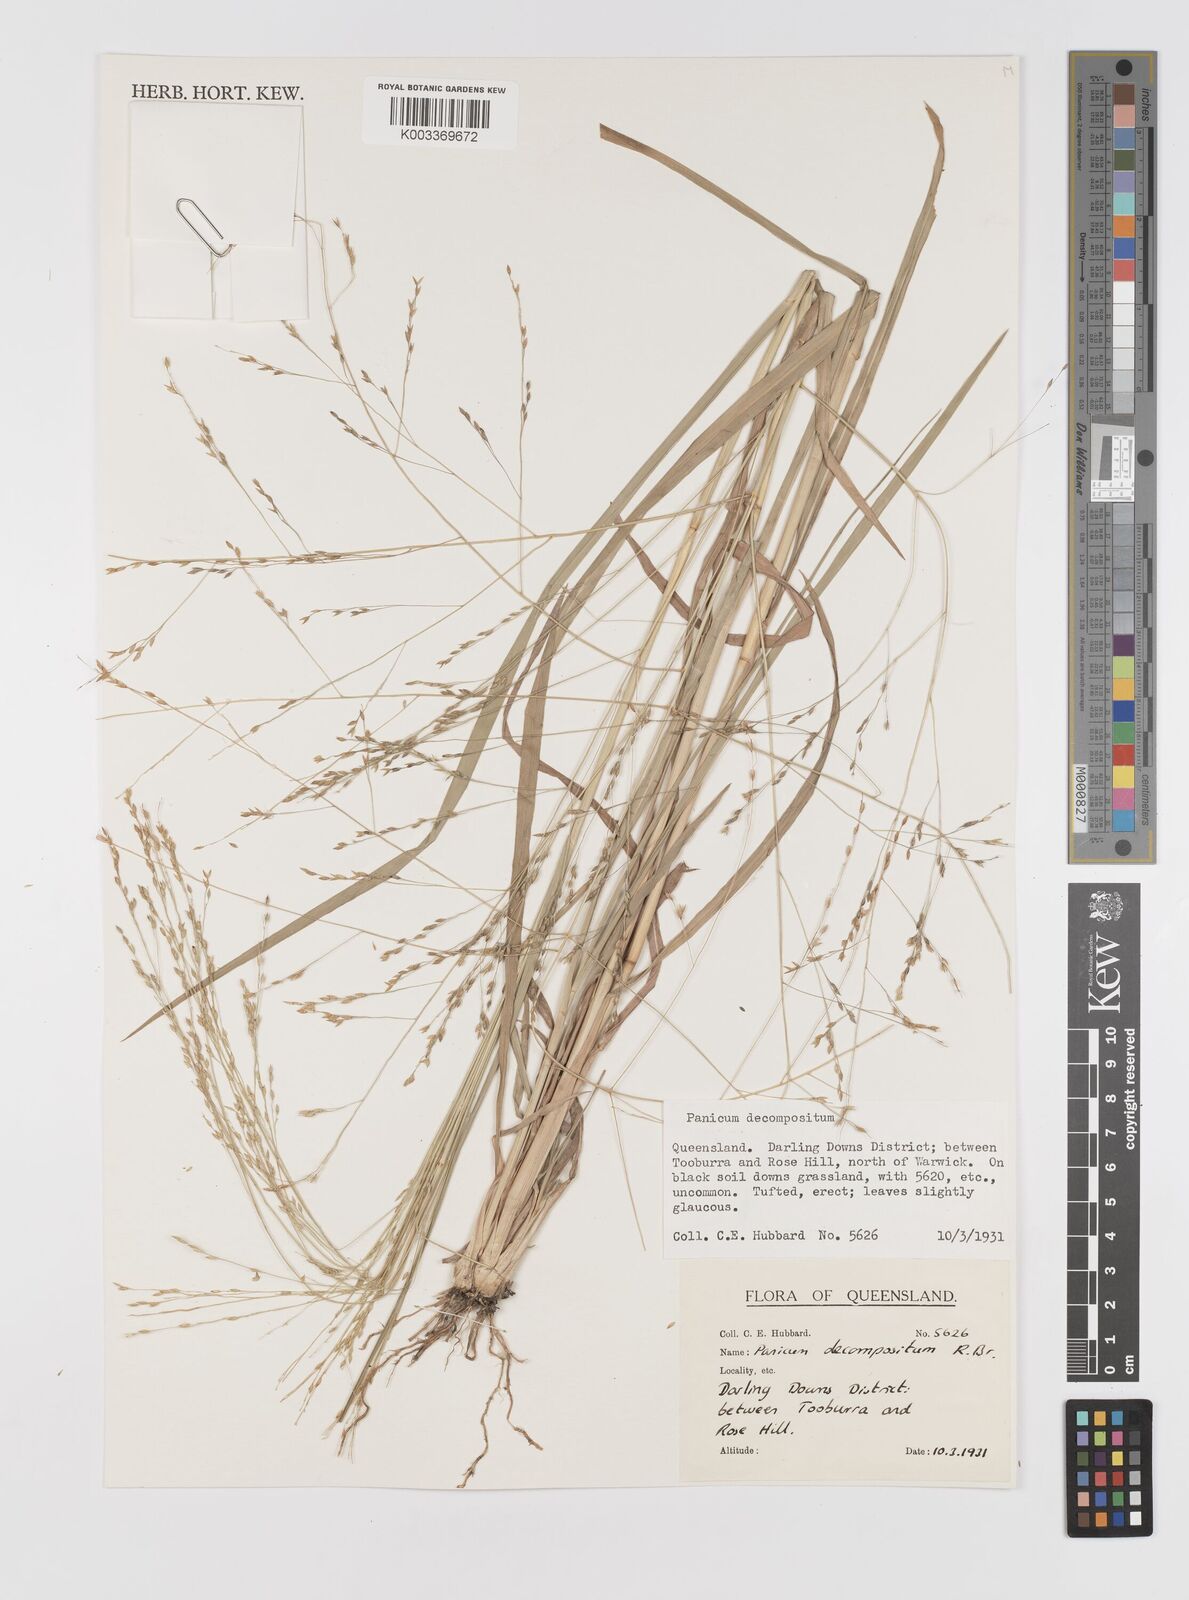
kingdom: Plantae
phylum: Tracheophyta
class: Liliopsida
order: Poales
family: Poaceae
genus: Panicum
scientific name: Panicum decompositum
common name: Australian millet
